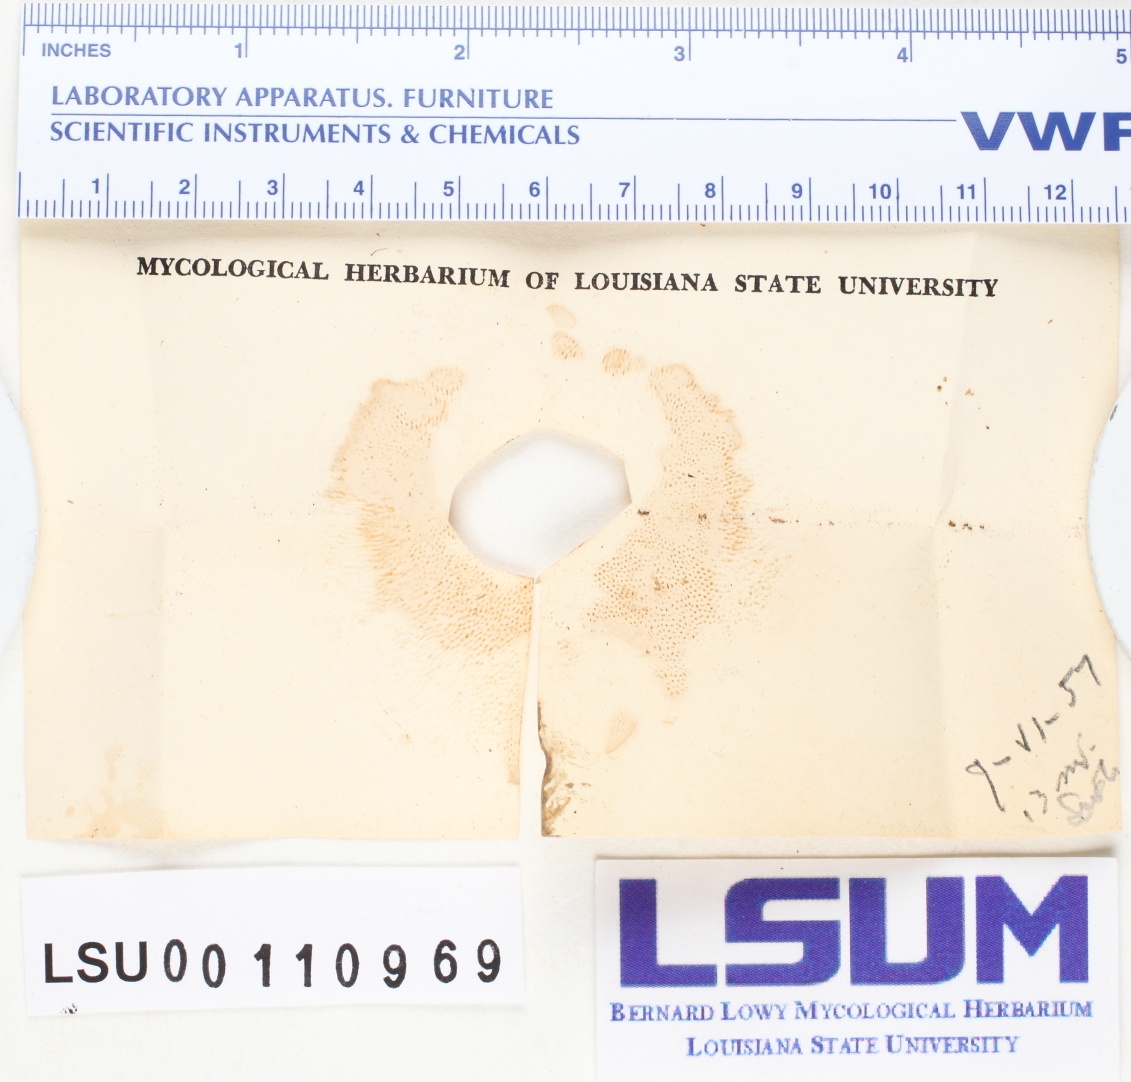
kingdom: Fungi
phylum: Basidiomycota
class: Agaricomycetes
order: Boletales
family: Boletaceae
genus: Tylopilus
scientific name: Tylopilus felleus
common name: Bitter bolete
